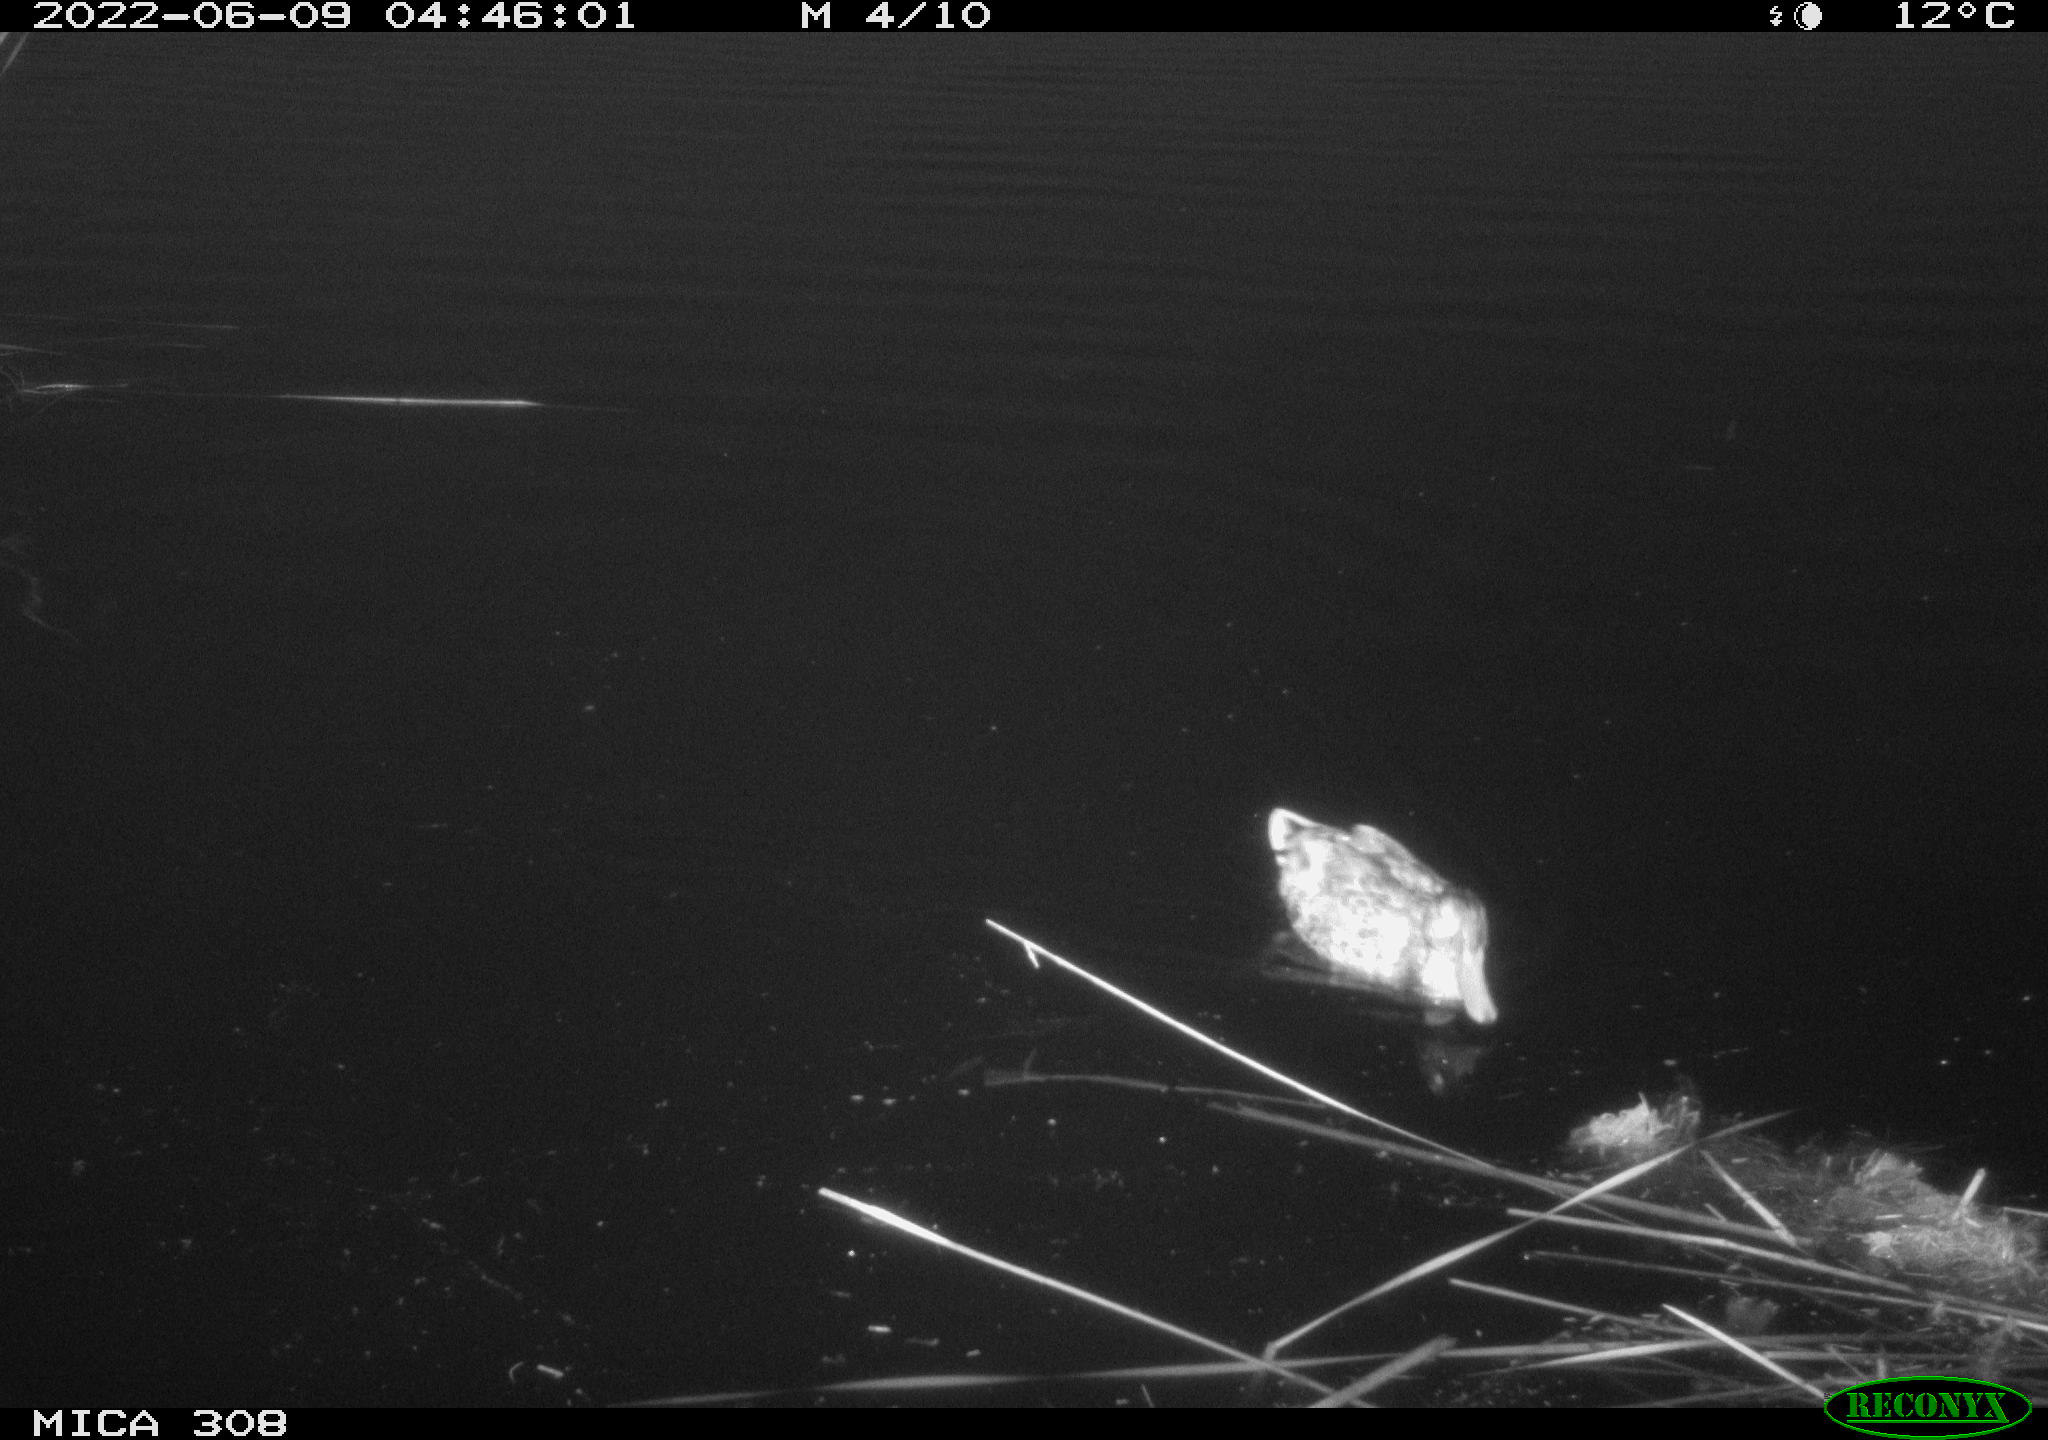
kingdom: Animalia
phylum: Chordata
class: Aves
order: Gruiformes
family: Rallidae
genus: Gallinula
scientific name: Gallinula chloropus
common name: Common moorhen
